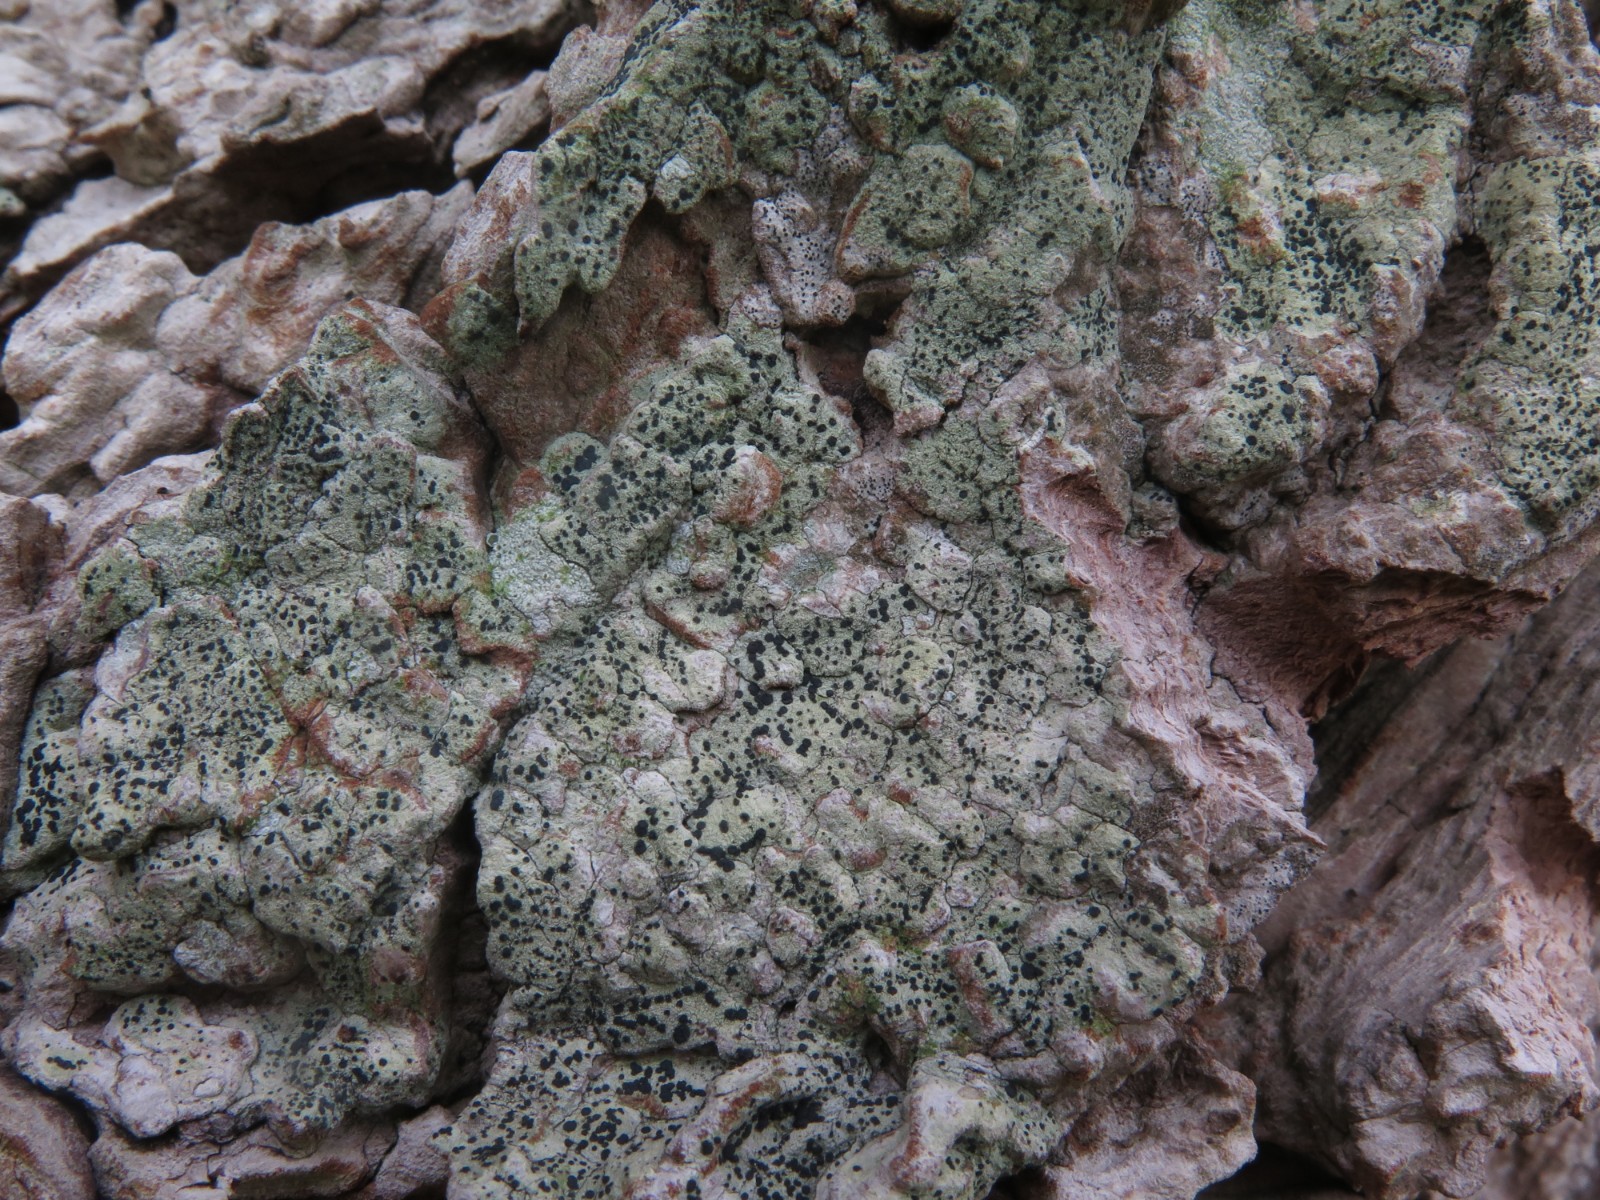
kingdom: Fungi
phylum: Ascomycota
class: Lecanoromycetes
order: Lecanorales
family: Lecanoraceae
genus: Lecidella
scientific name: Lecidella elaeochroma
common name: grågrøn skivelav
